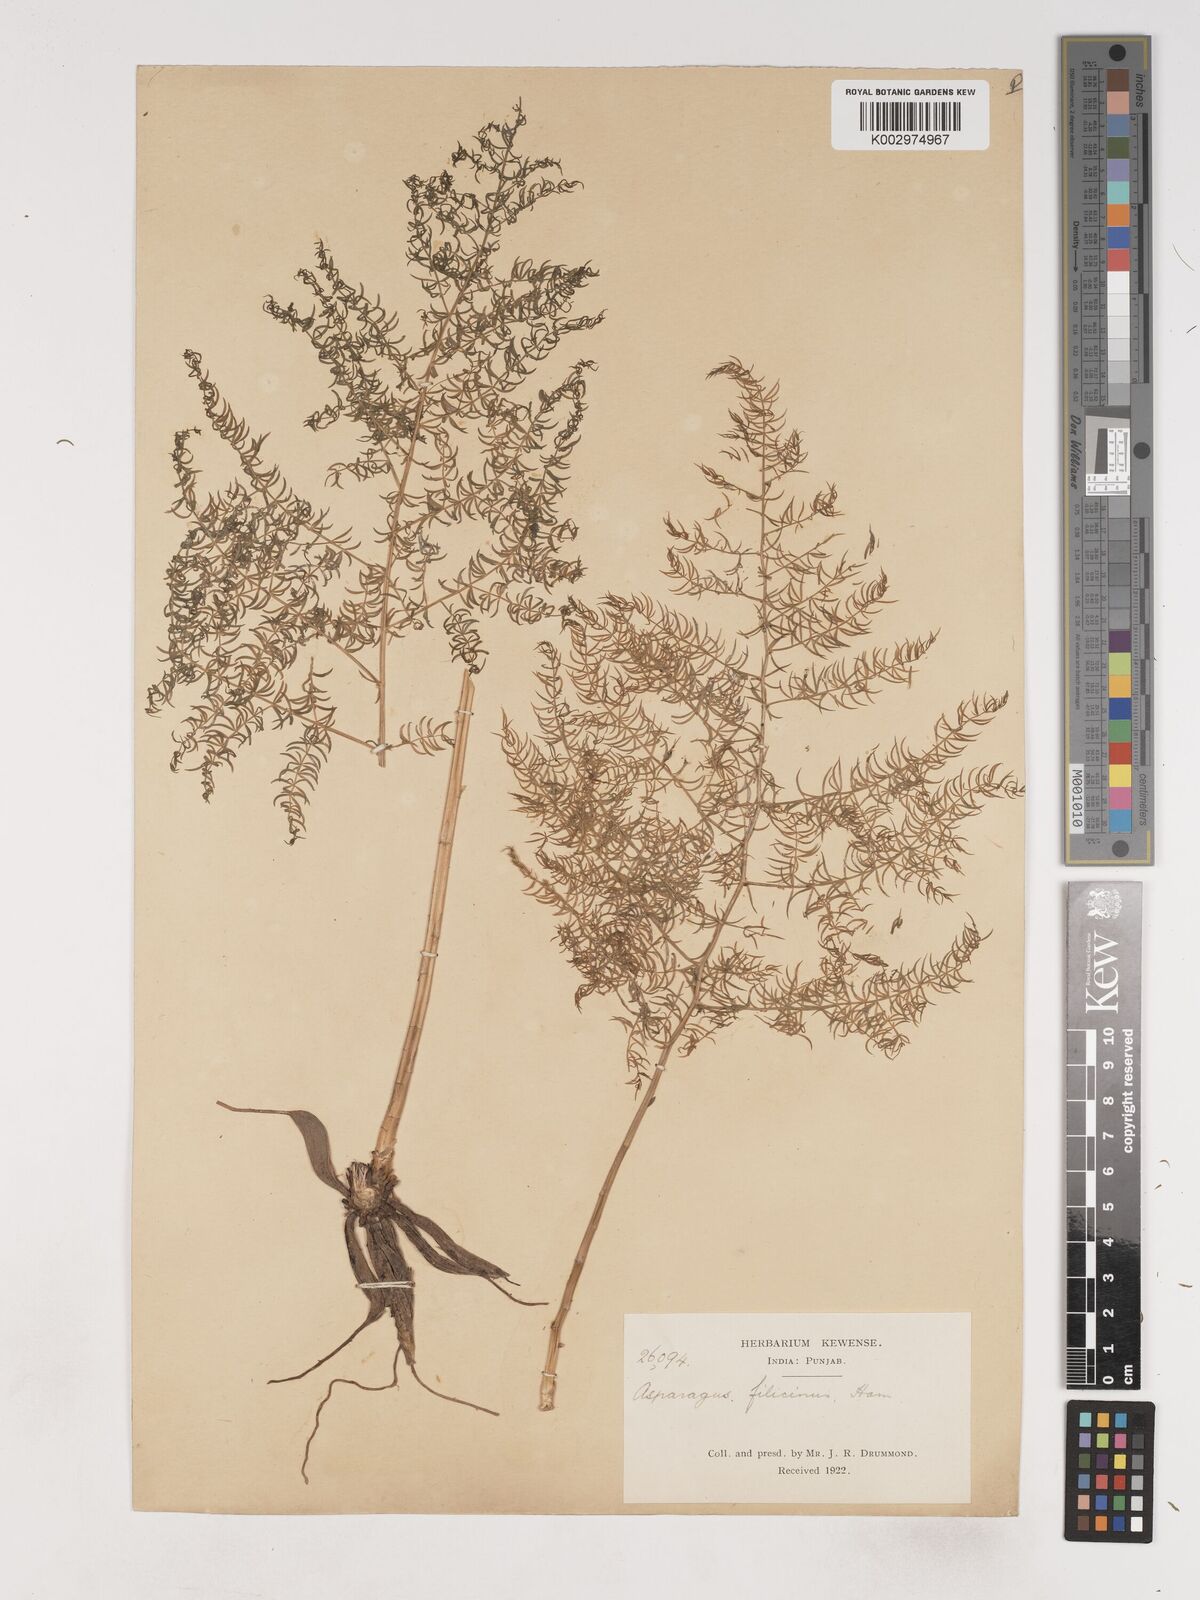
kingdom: Plantae
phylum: Tracheophyta
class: Liliopsida
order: Asparagales
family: Asparagaceae
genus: Asparagus
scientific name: Asparagus filicinus
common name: Fern asparagus
